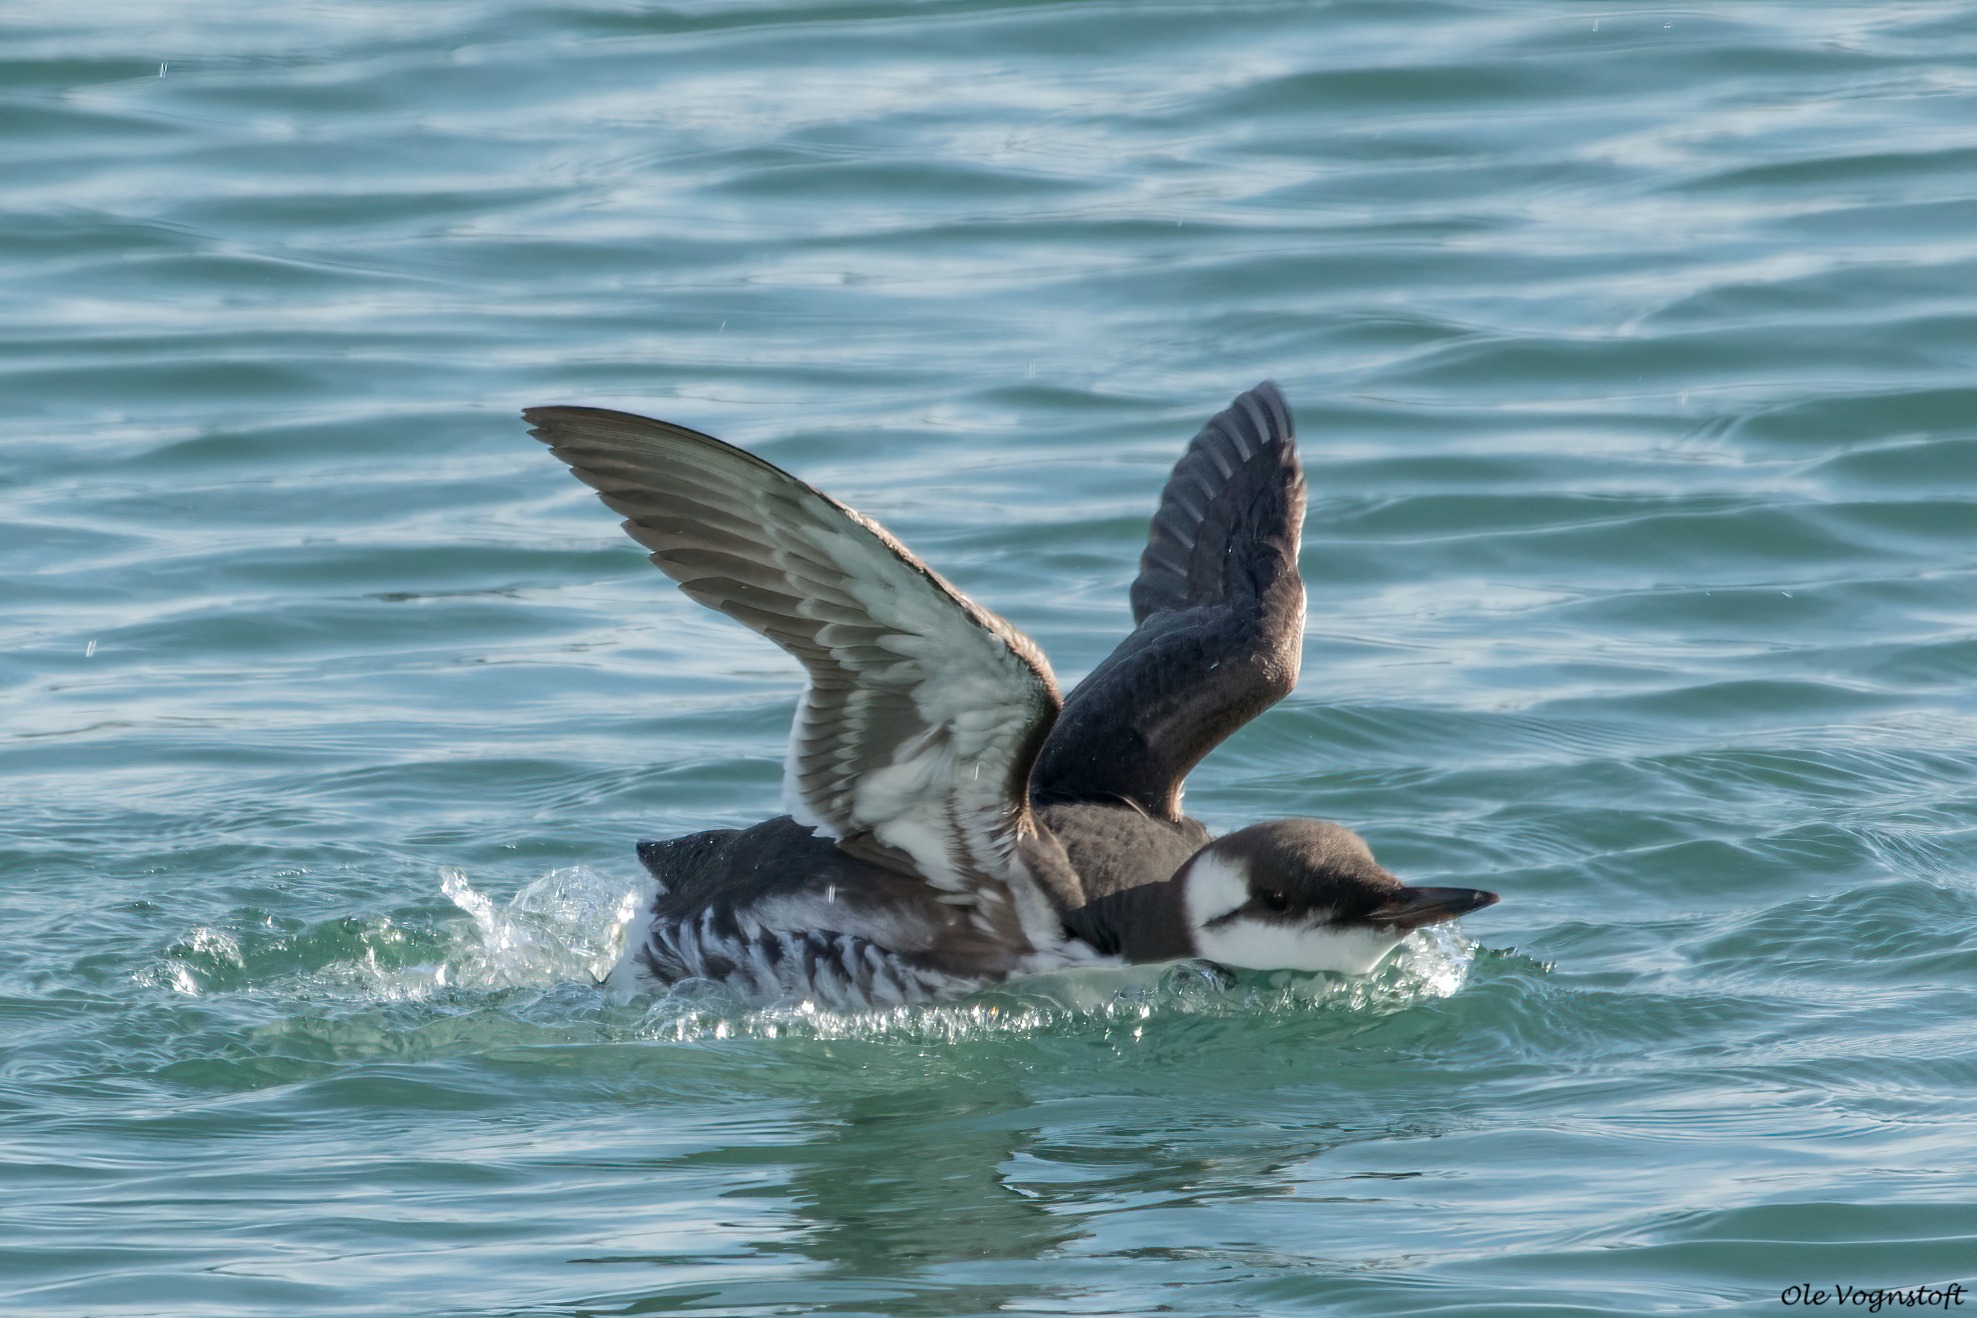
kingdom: Animalia
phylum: Chordata
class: Aves
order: Charadriiformes
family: Alcidae
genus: Uria
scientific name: Uria aalge
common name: Lomvie
